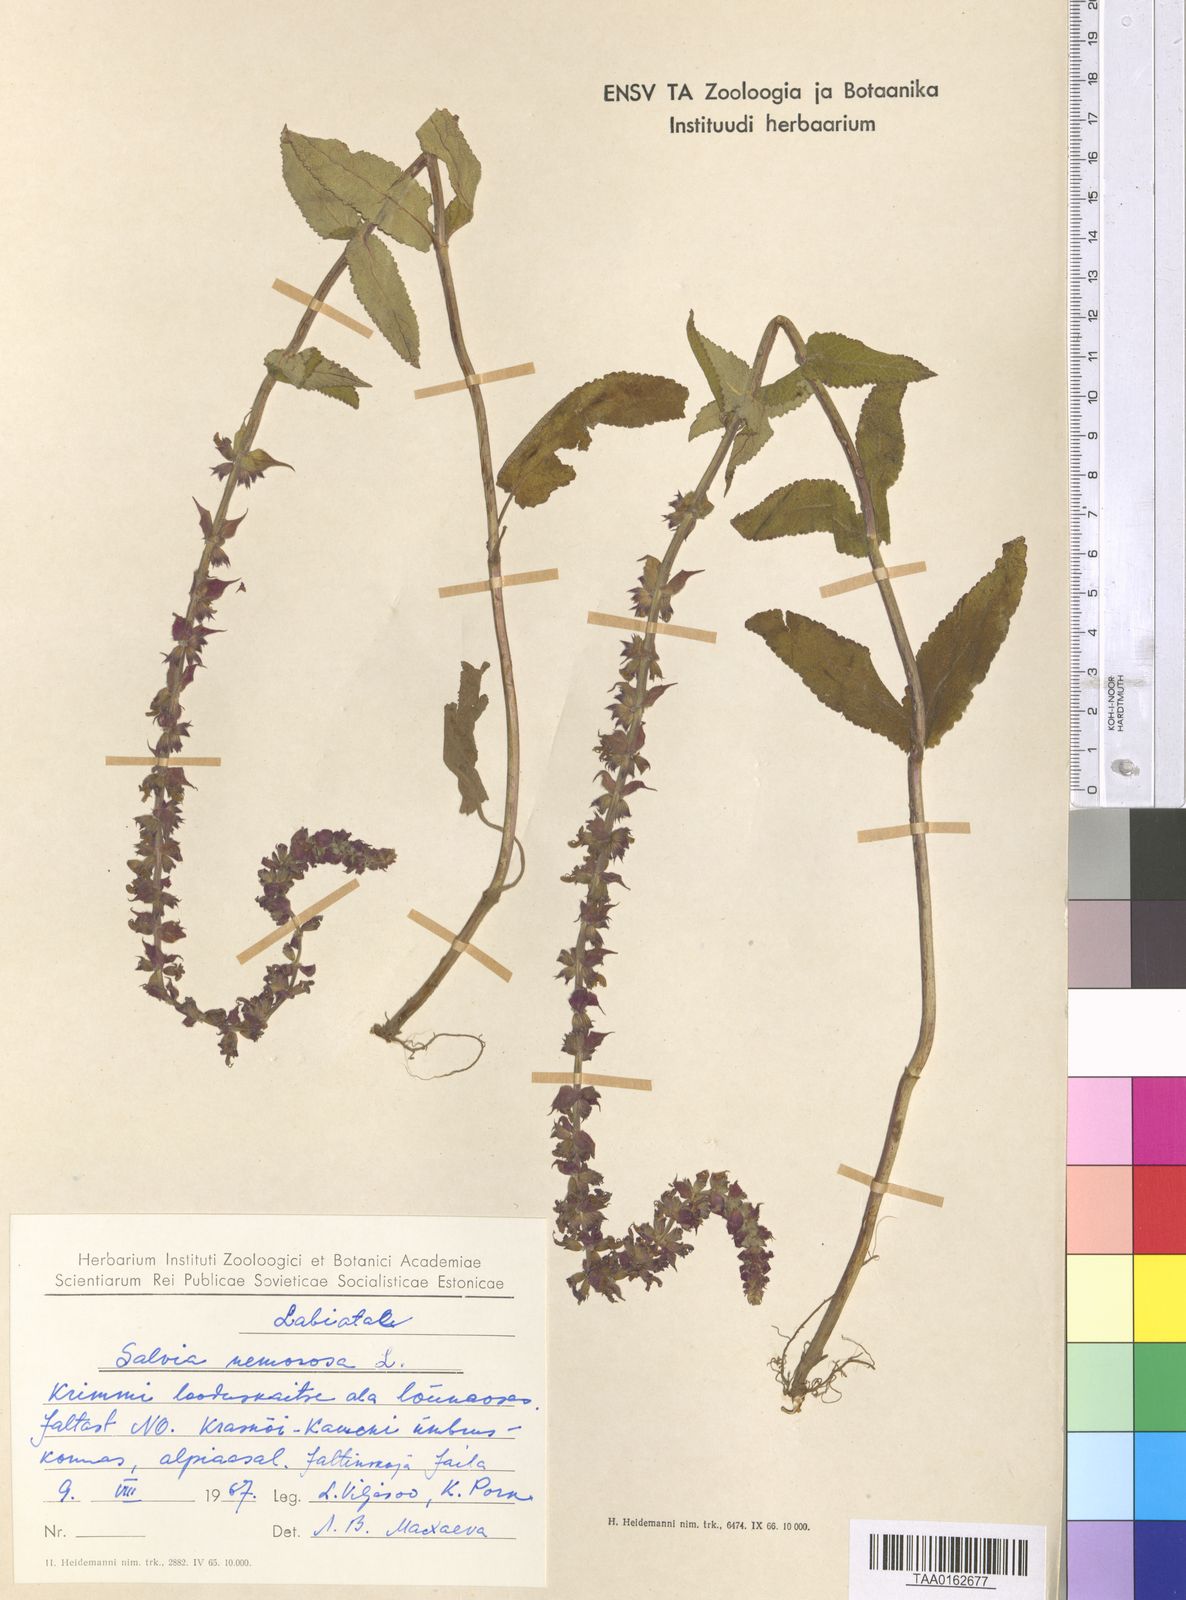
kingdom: Plantae
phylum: Tracheophyta
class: Magnoliopsida
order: Lamiales
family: Lamiaceae
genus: Salvia
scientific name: Salvia nemorosa
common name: Balkan clary
